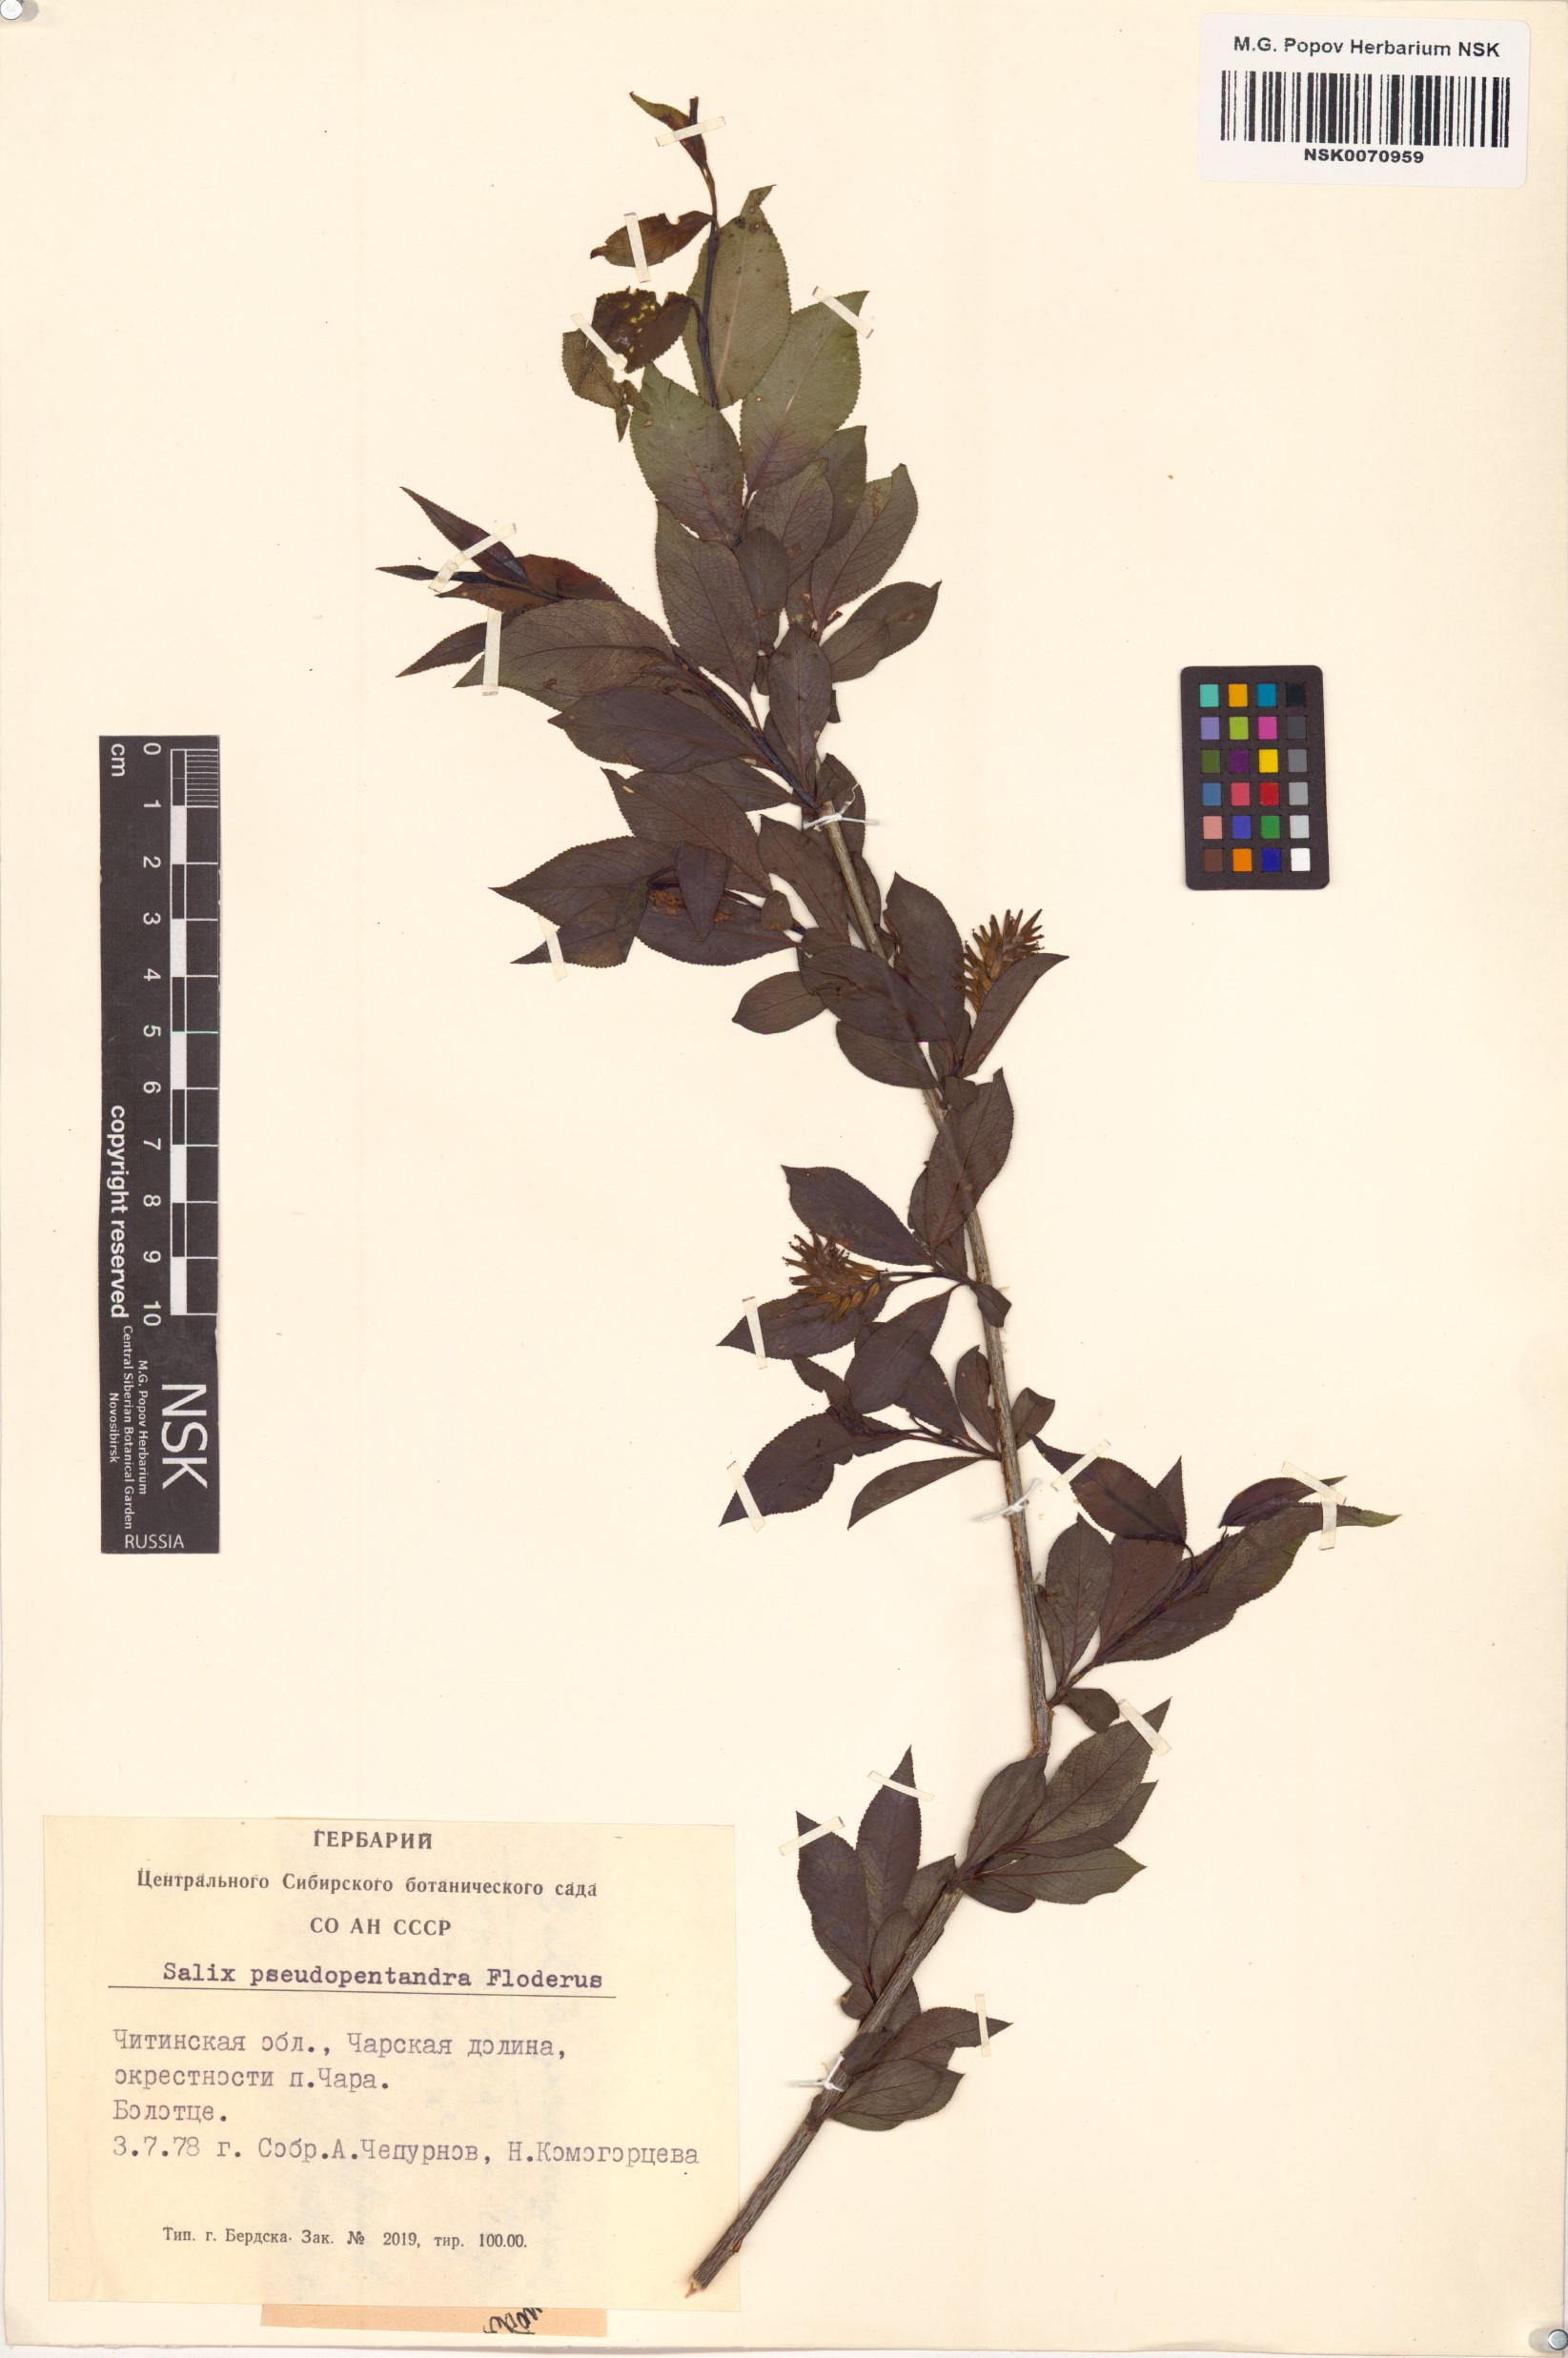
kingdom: Plantae
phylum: Tracheophyta
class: Magnoliopsida
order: Malpighiales
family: Salicaceae
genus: Salix
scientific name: Salix pseudopentandra
